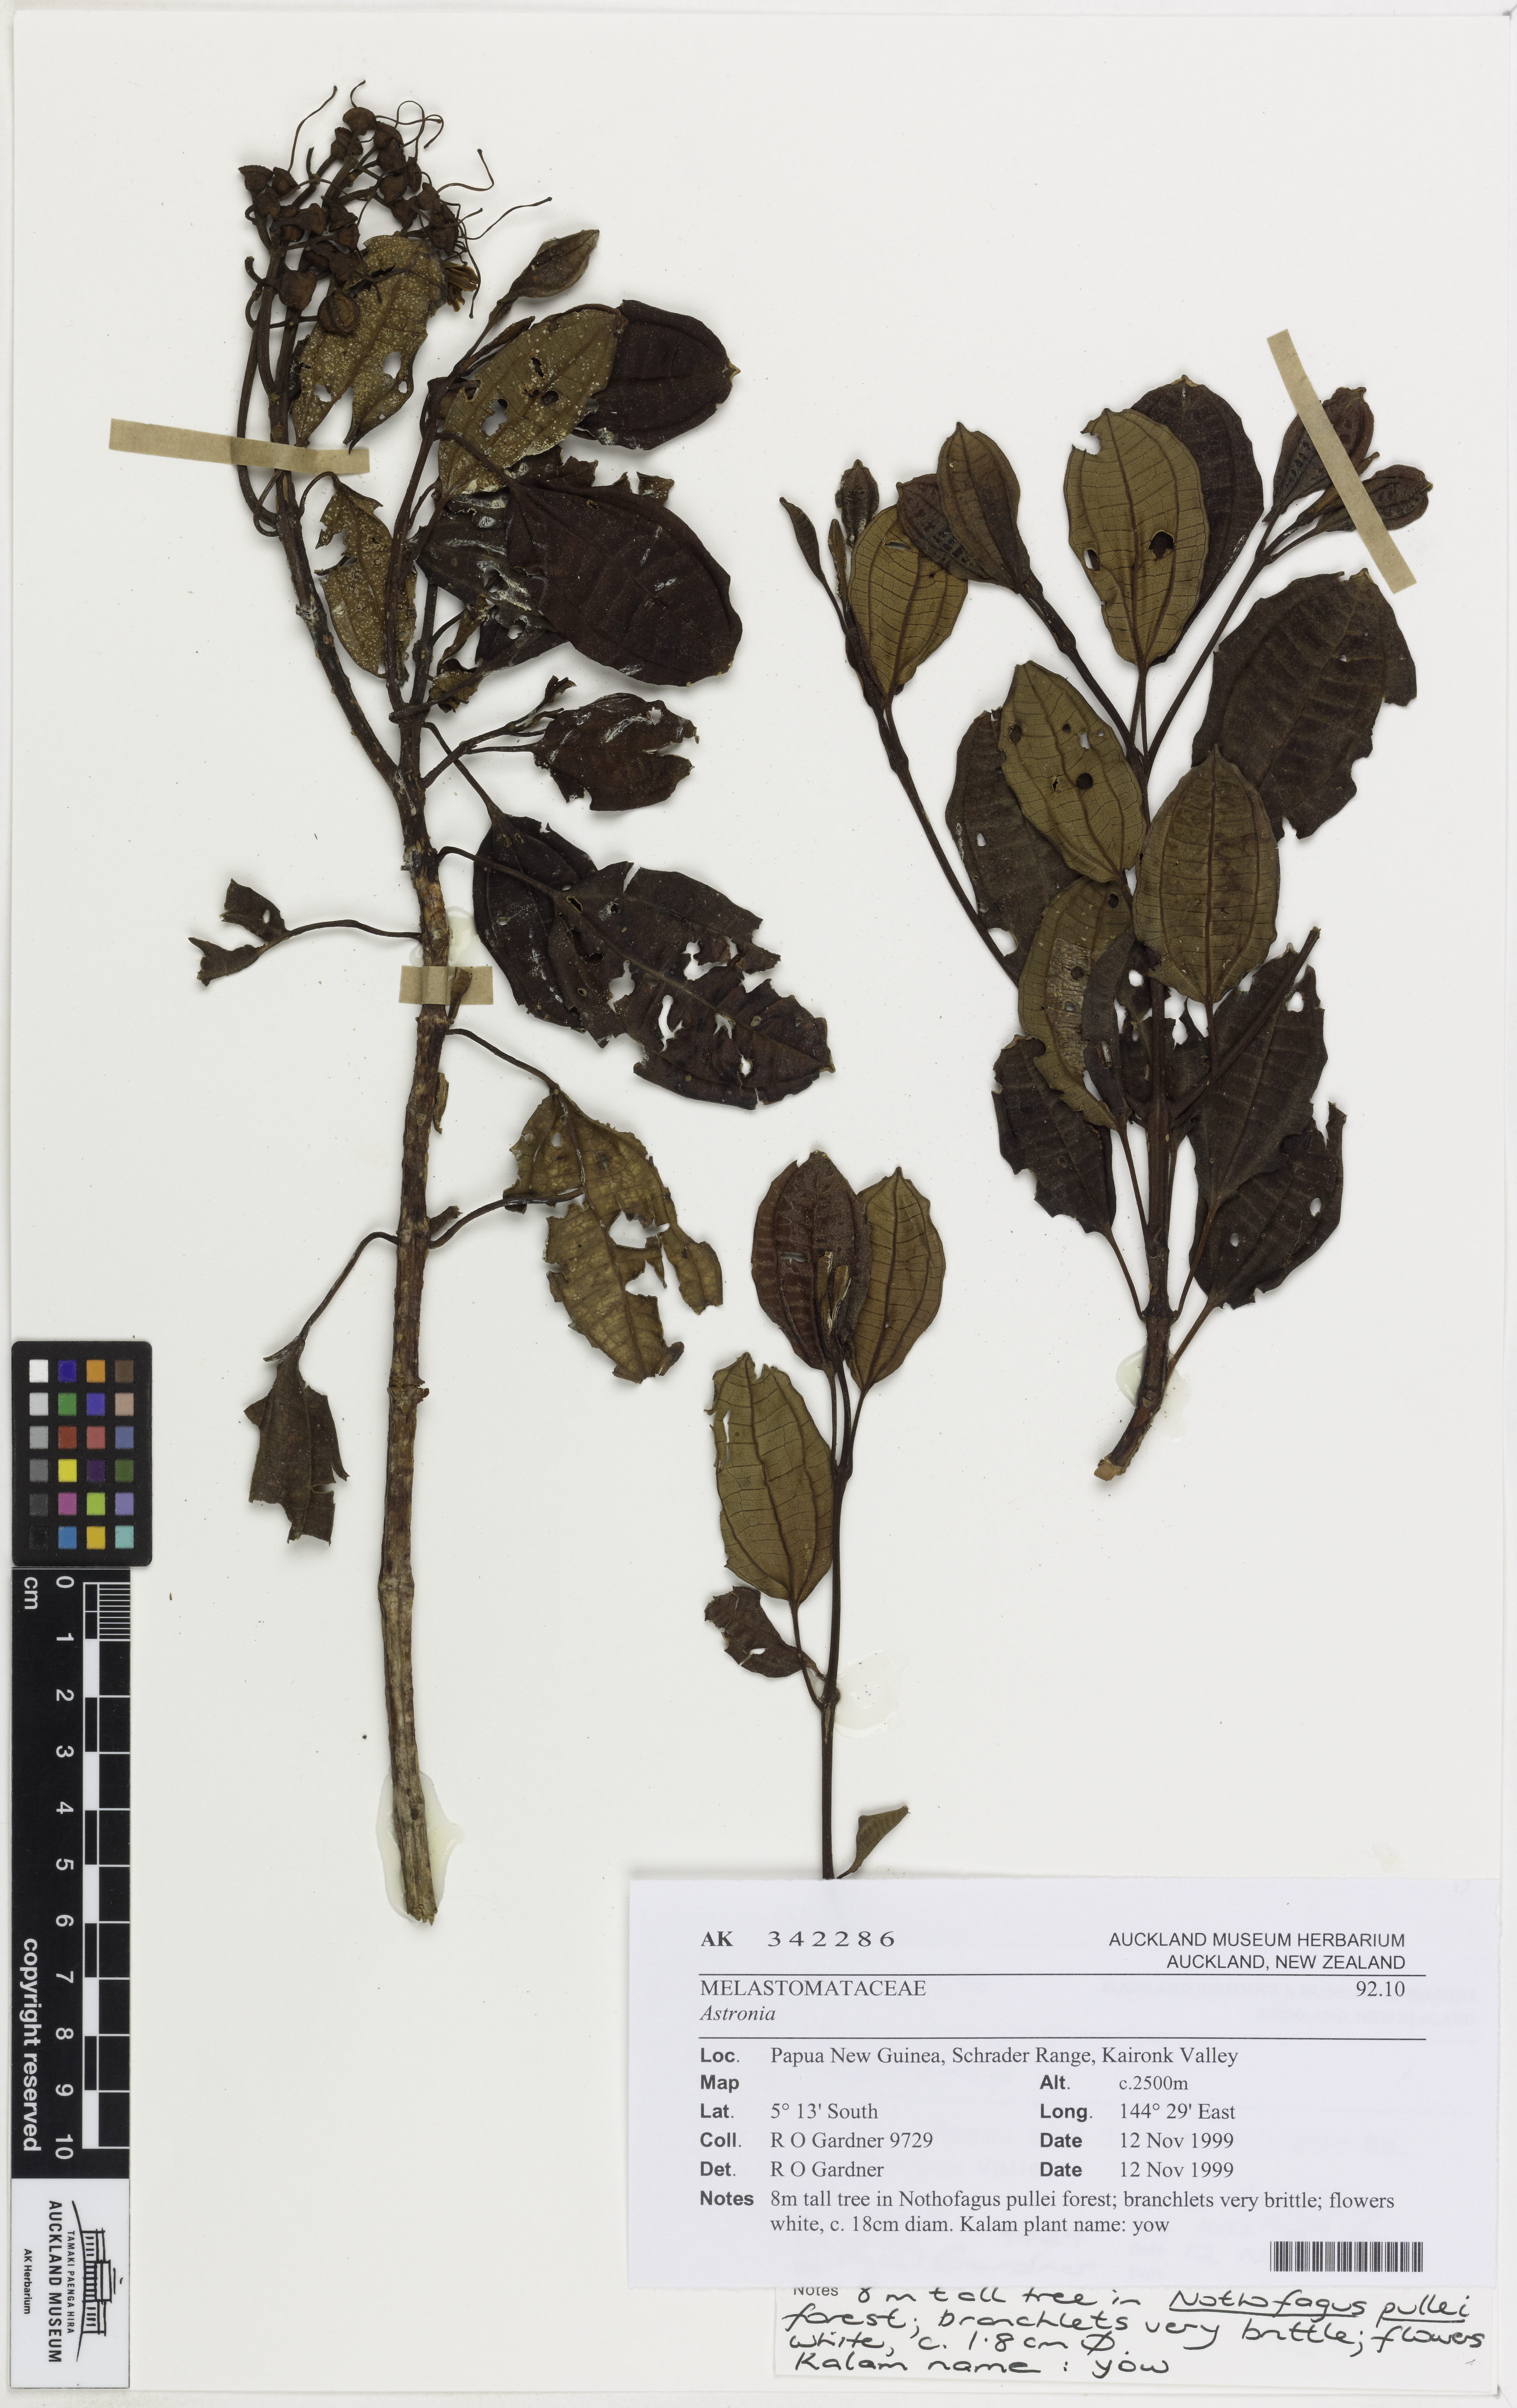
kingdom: Plantae
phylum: Tracheophyta
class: Magnoliopsida
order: Myrtales
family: Melastomataceae
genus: Astronia
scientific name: Astronia
